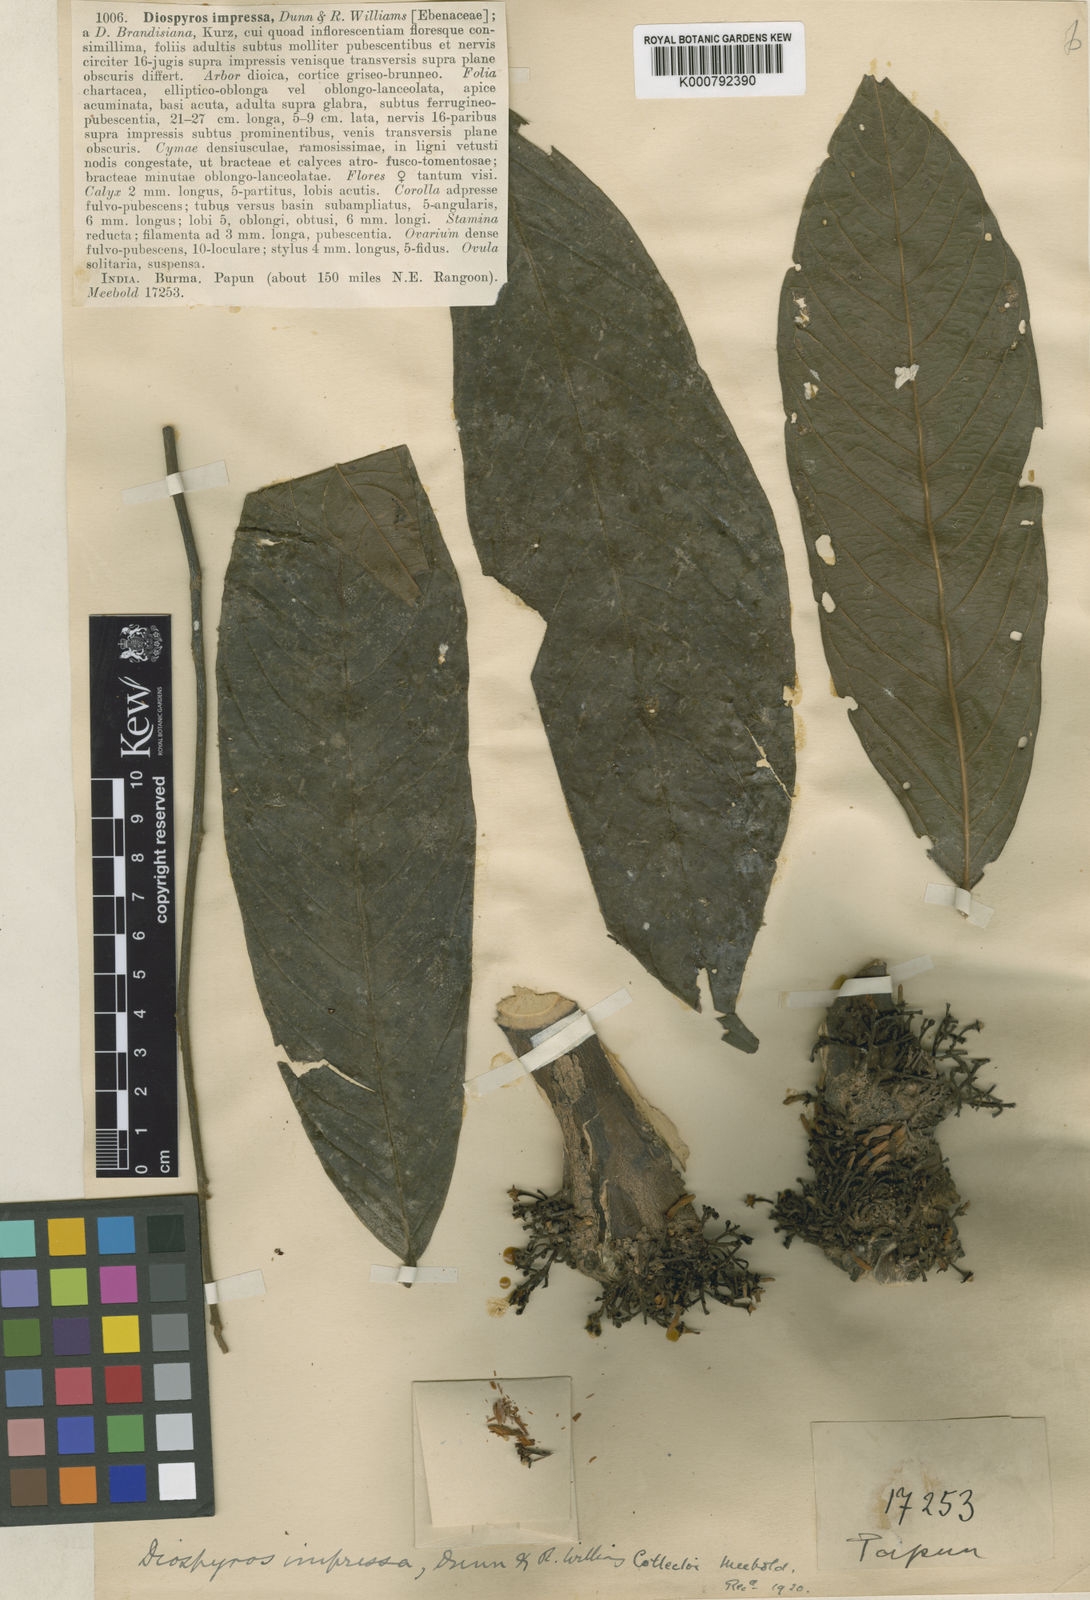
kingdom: Plantae
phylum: Tracheophyta
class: Magnoliopsida
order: Ericales
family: Ebenaceae
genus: Diospyros
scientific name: Diospyros impressa
